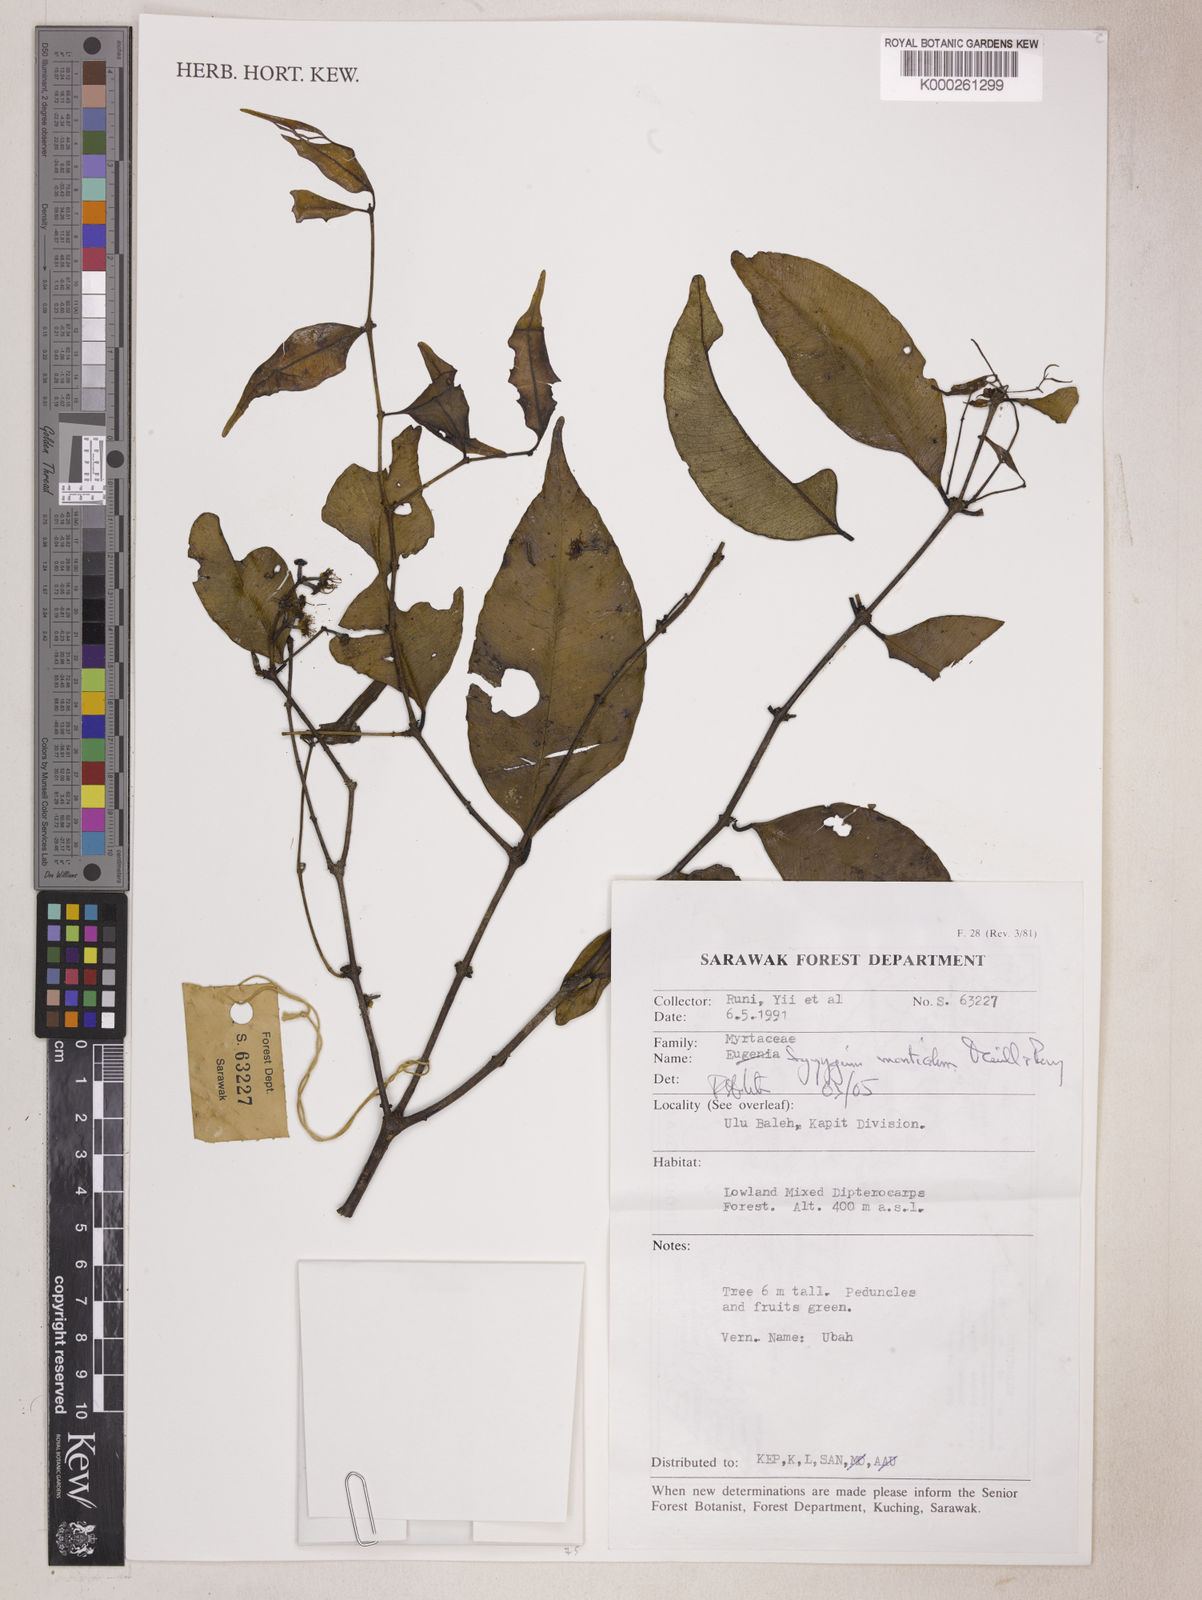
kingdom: Plantae
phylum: Tracheophyta
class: Magnoliopsida
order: Myrtales
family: Myrtaceae
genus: Syzygium
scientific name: Syzygium monticola
